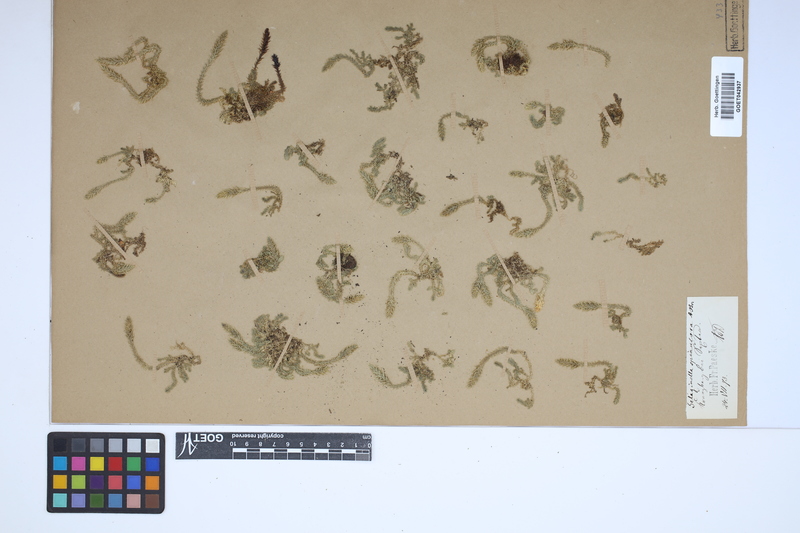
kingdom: Plantae
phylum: Tracheophyta
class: Lycopodiopsida
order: Selaginellales
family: Selaginellaceae
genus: Selaginella
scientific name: Selaginella selaginoides
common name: Prickly mountain-moss
